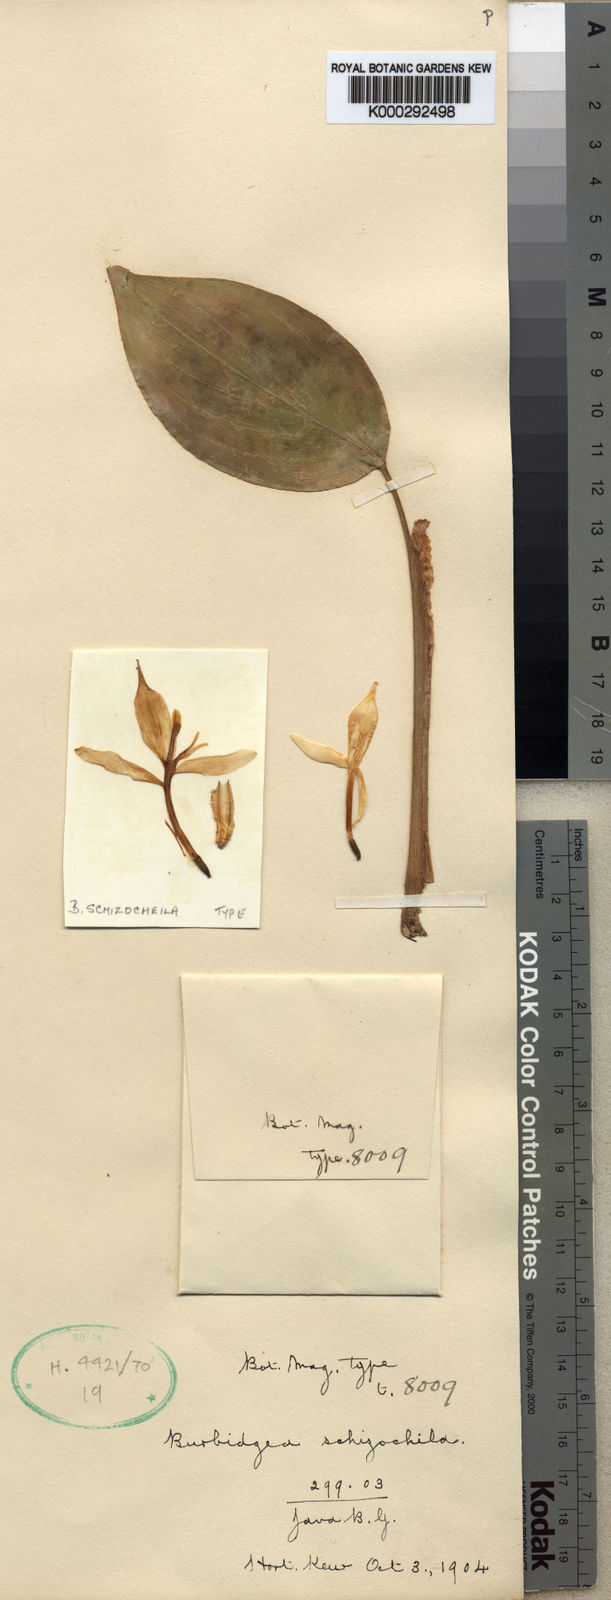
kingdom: Plantae
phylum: Tracheophyta
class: Liliopsida
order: Zingiberales
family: Zingiberaceae
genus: Burbidgea
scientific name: Burbidgea schizocheila
